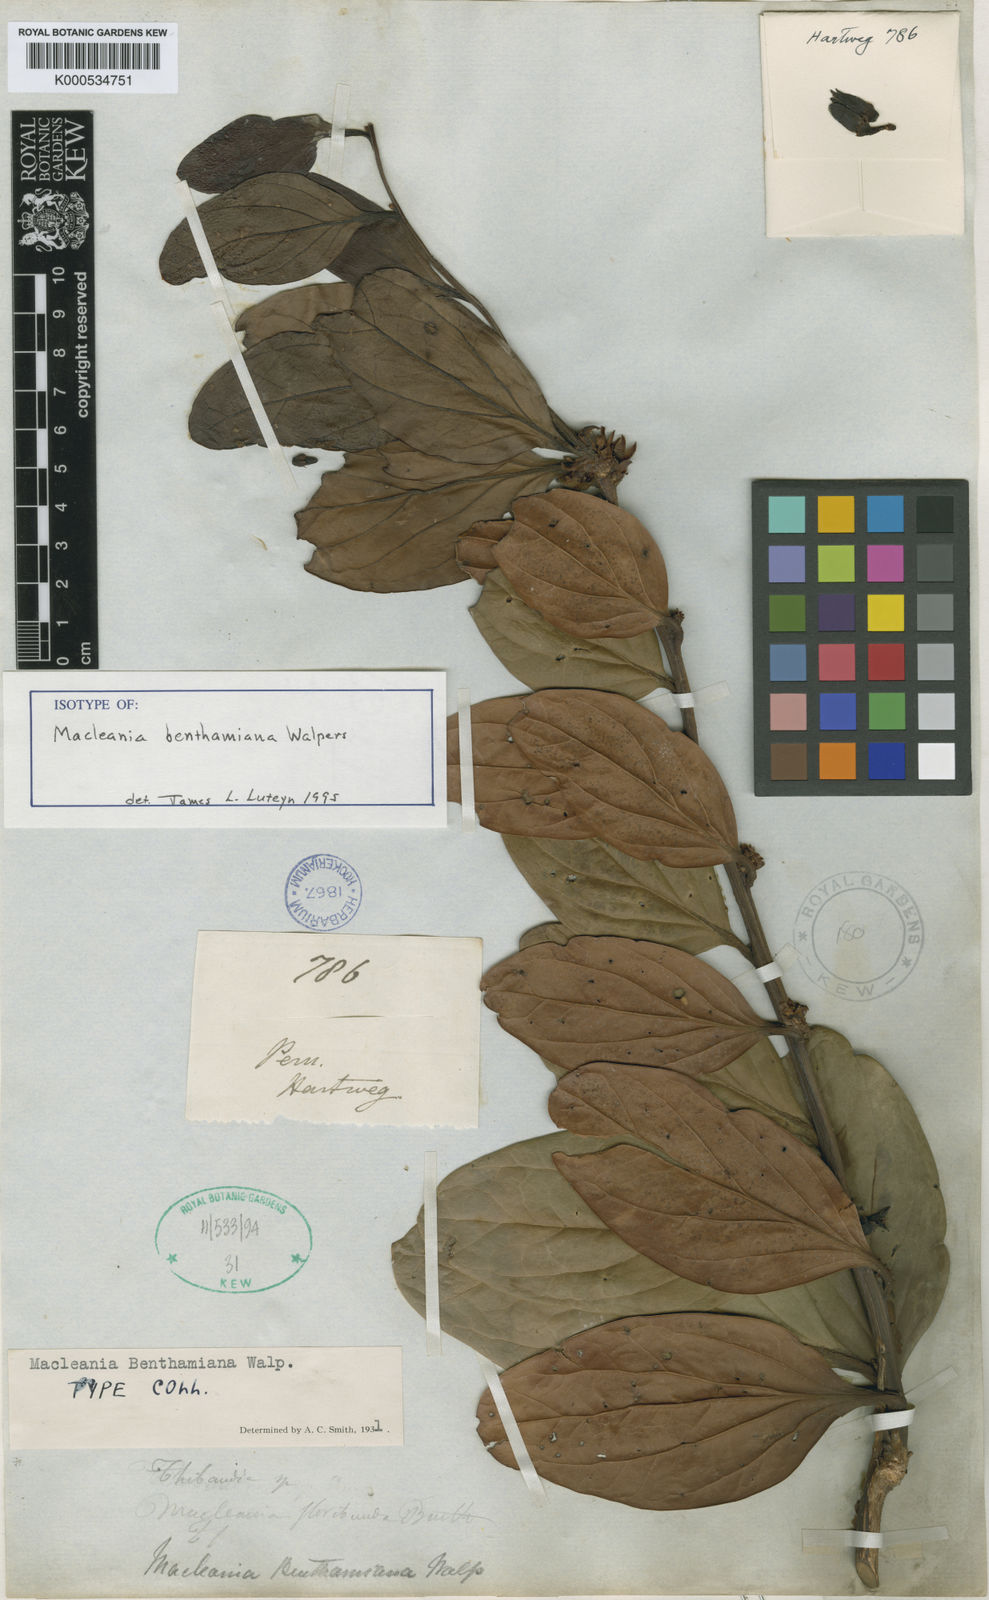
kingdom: Plantae
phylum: Tracheophyta
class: Magnoliopsida
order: Ericales
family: Ericaceae
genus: Macleania
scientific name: Macleania benthamiana
